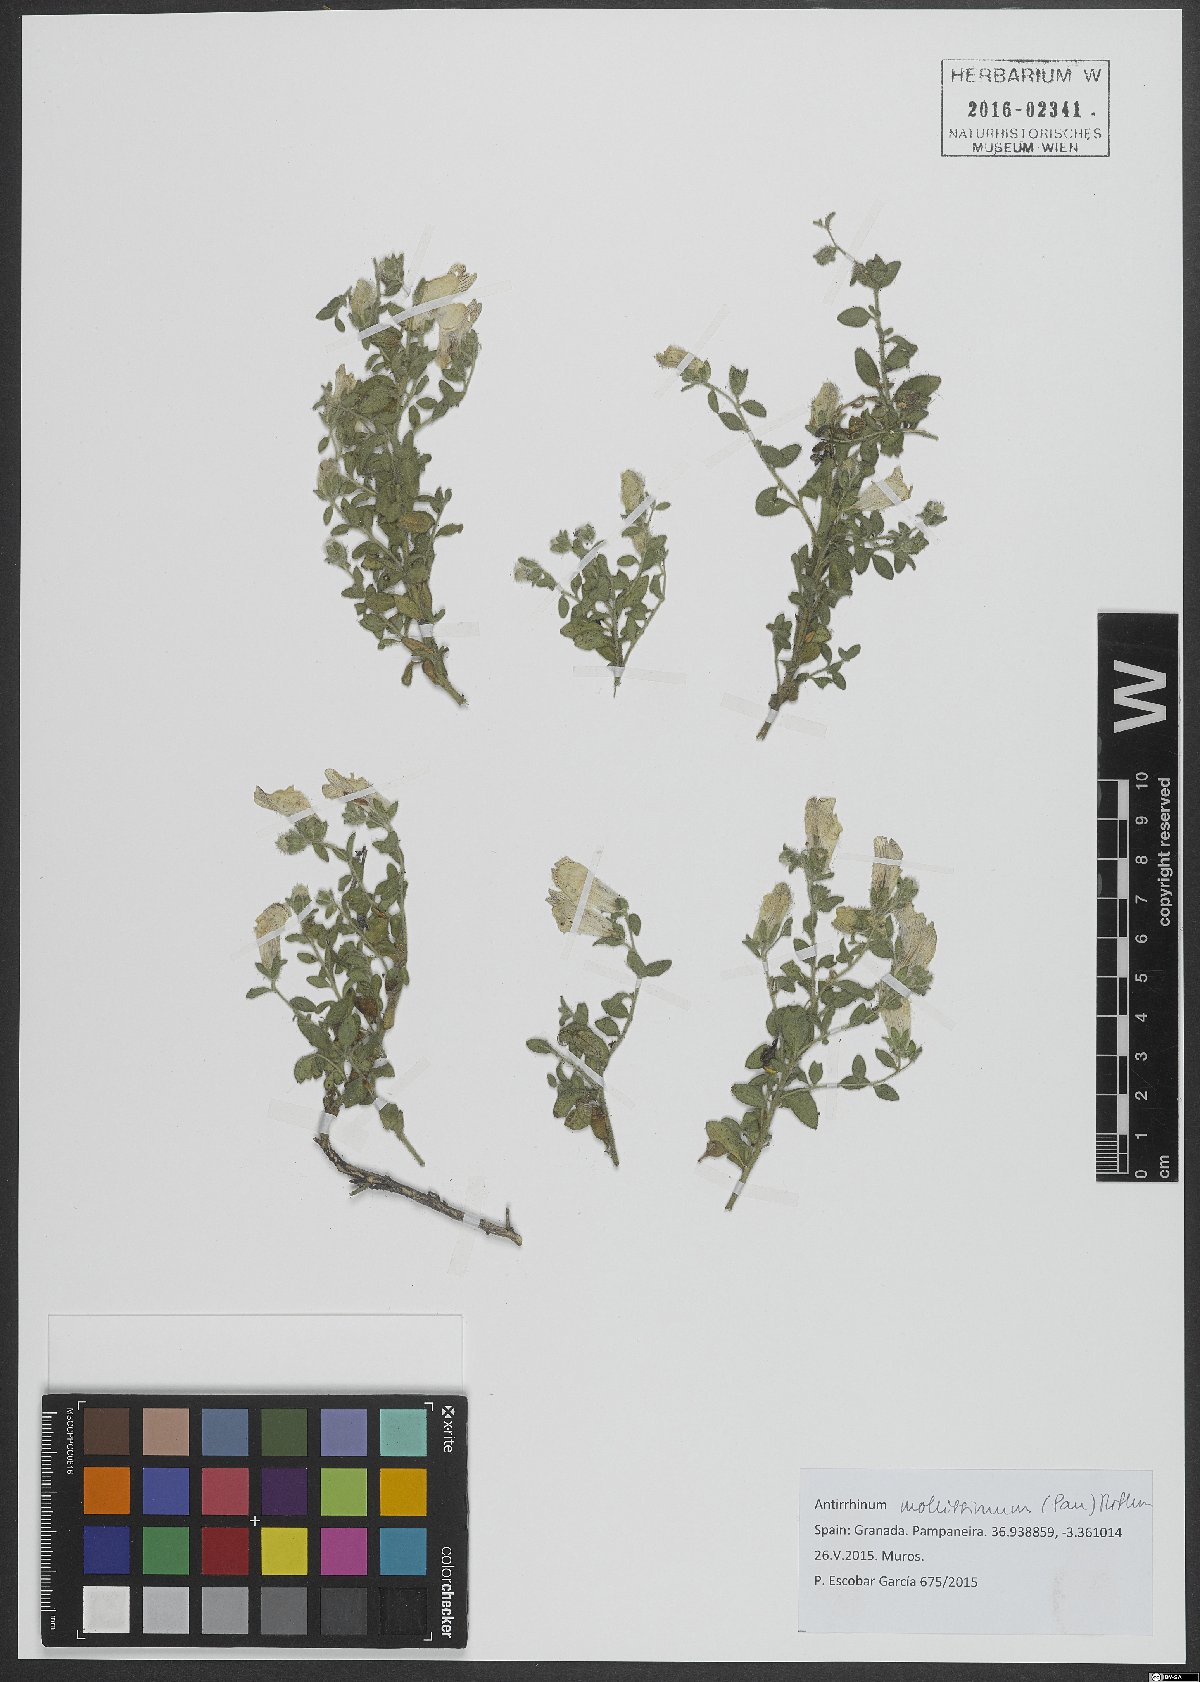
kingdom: Plantae
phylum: Tracheophyta
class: Magnoliopsida
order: Lamiales
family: Plantaginaceae
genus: Antirrhinum
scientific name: Antirrhinum mollissimum
